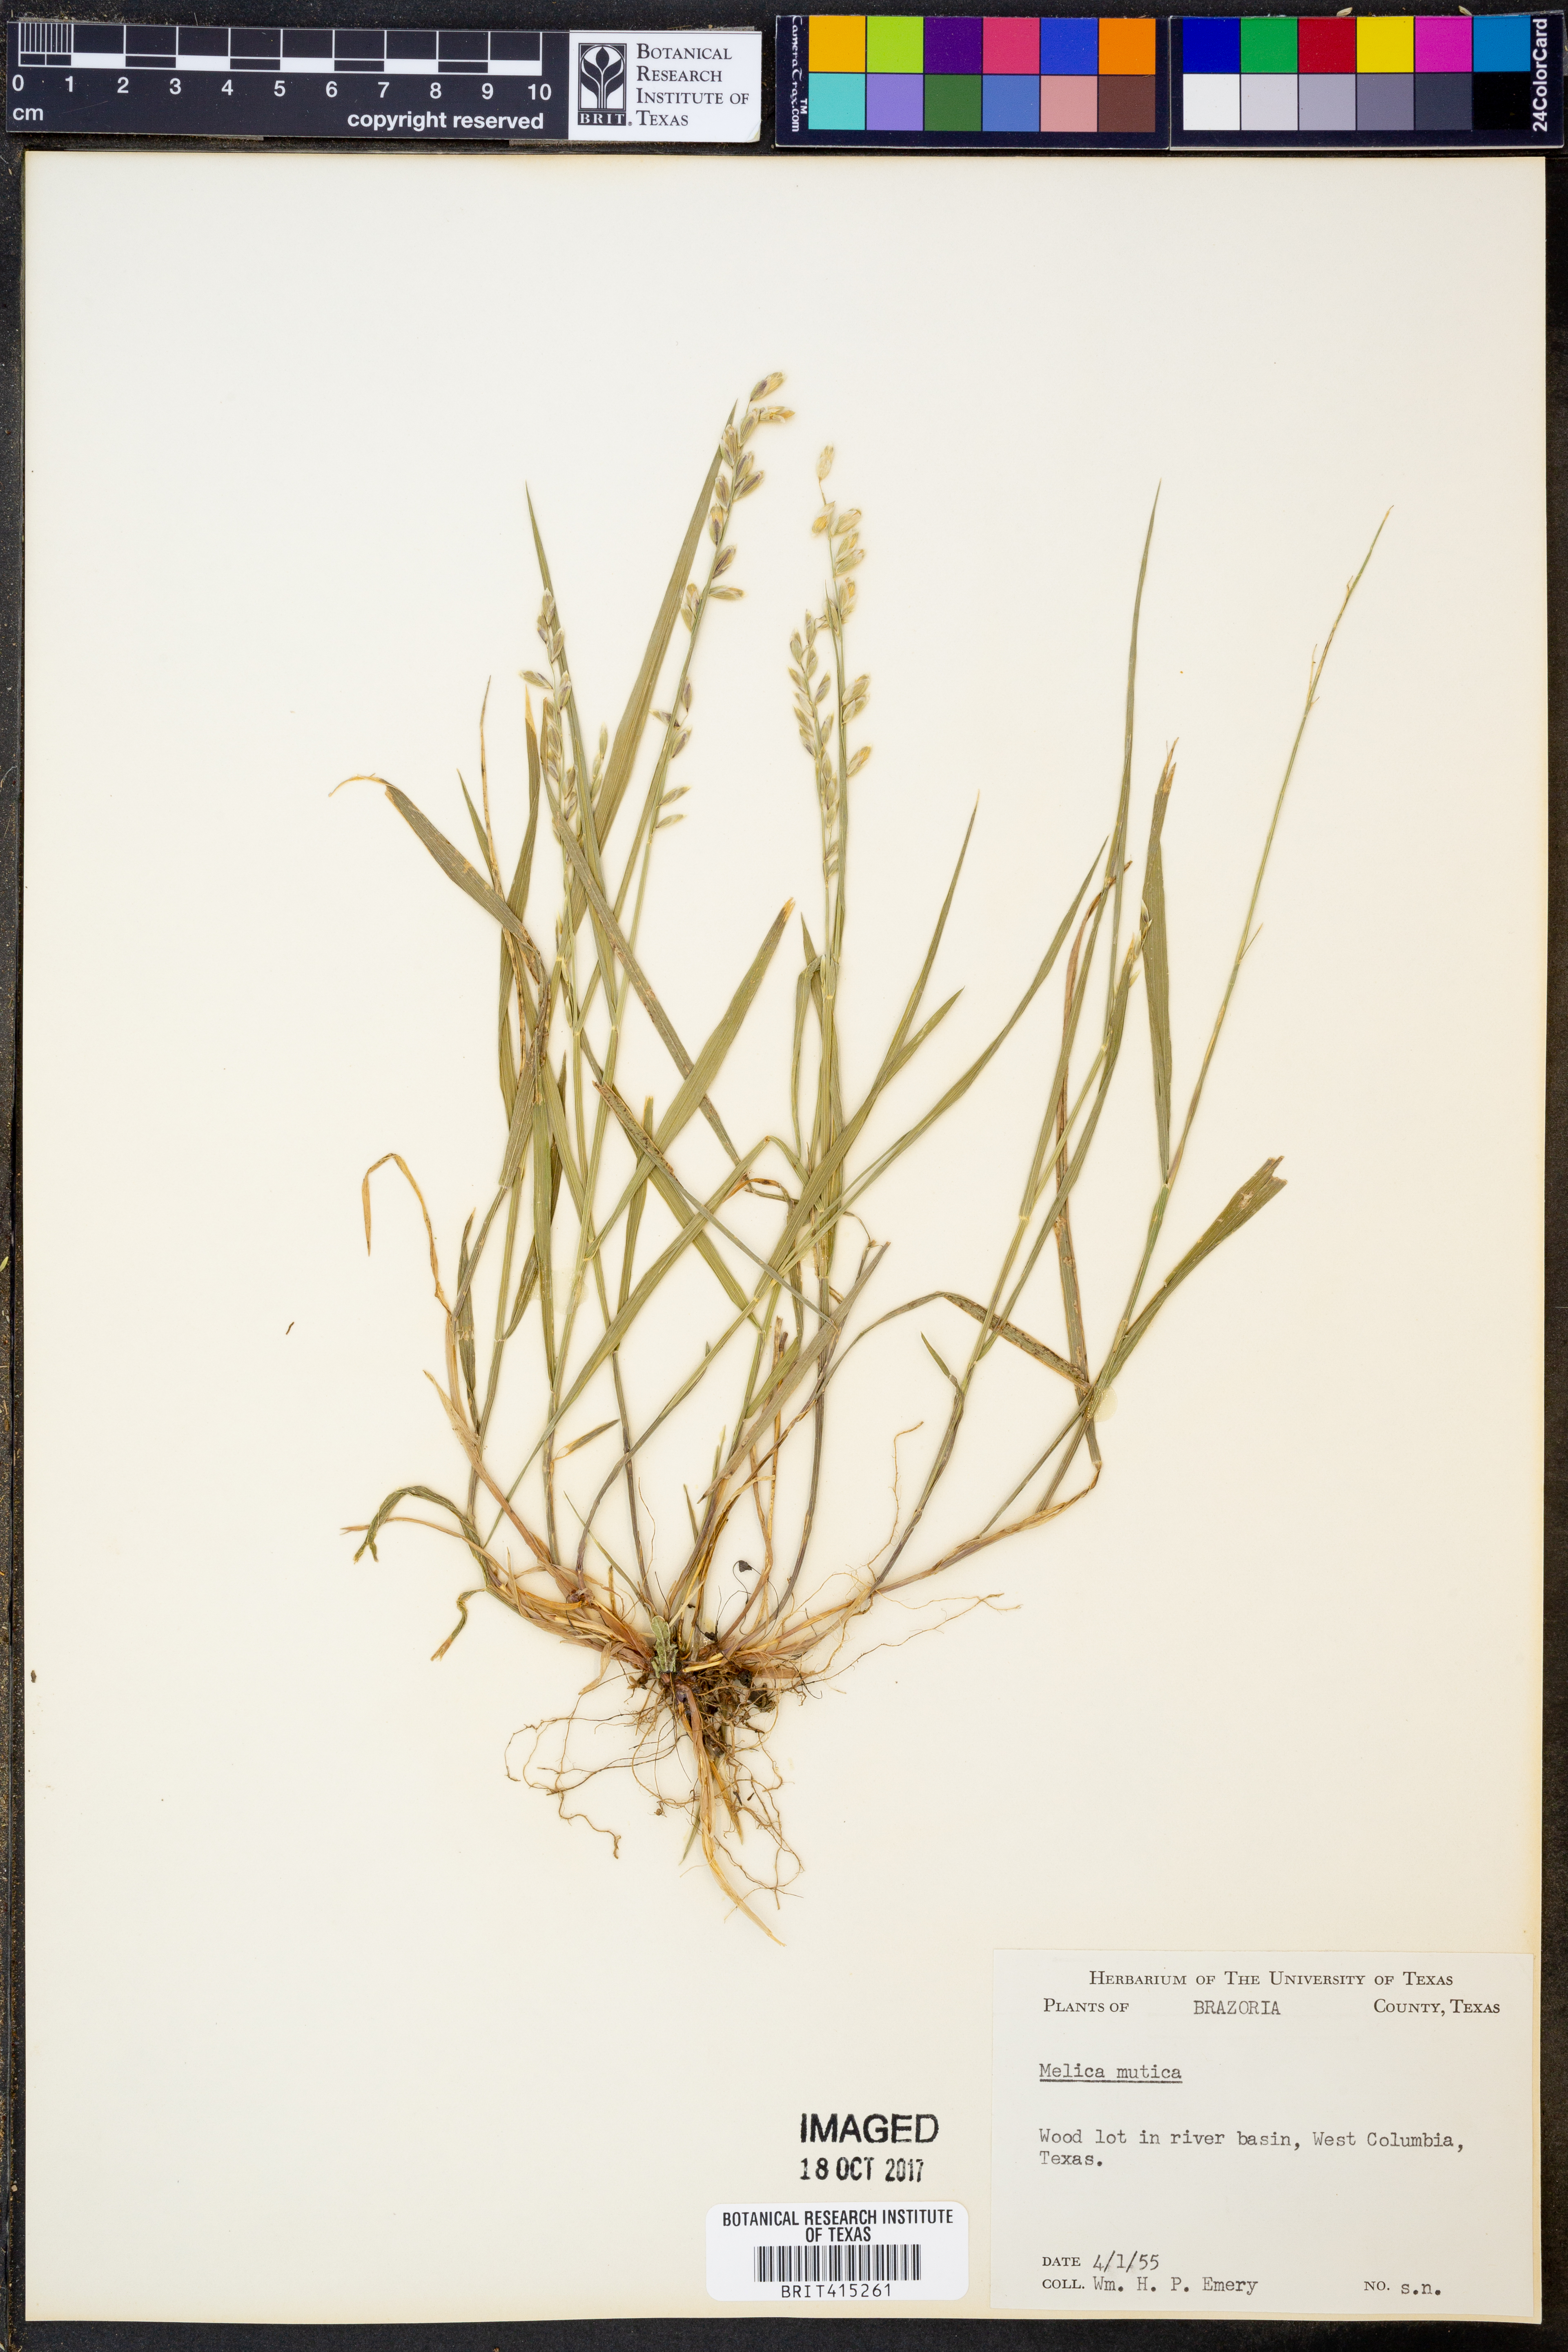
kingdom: Plantae
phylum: Tracheophyta
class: Liliopsida
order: Poales
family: Poaceae
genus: Melica
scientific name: Melica mutica
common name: Two-flower melic
